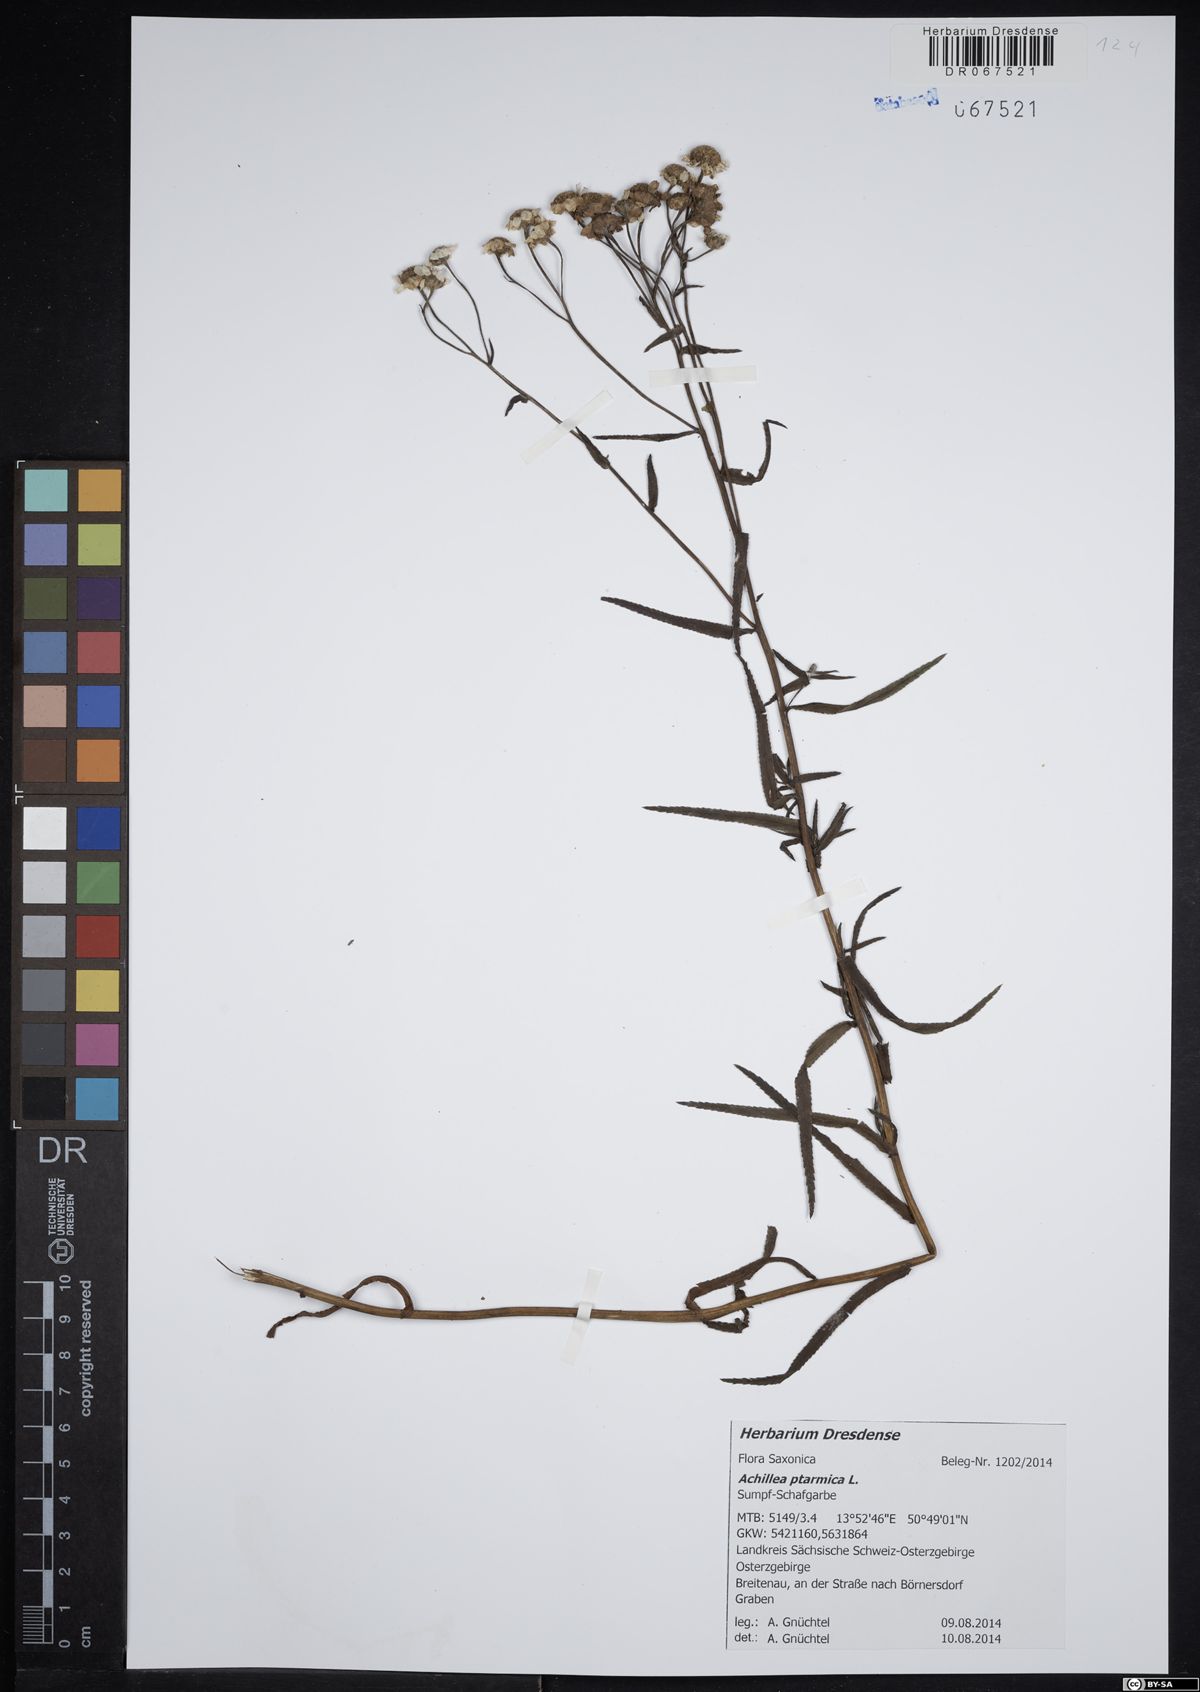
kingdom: Plantae
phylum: Tracheophyta
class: Magnoliopsida
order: Asterales
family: Asteraceae
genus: Achillea
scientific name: Achillea ptarmica
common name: Sneezeweed
